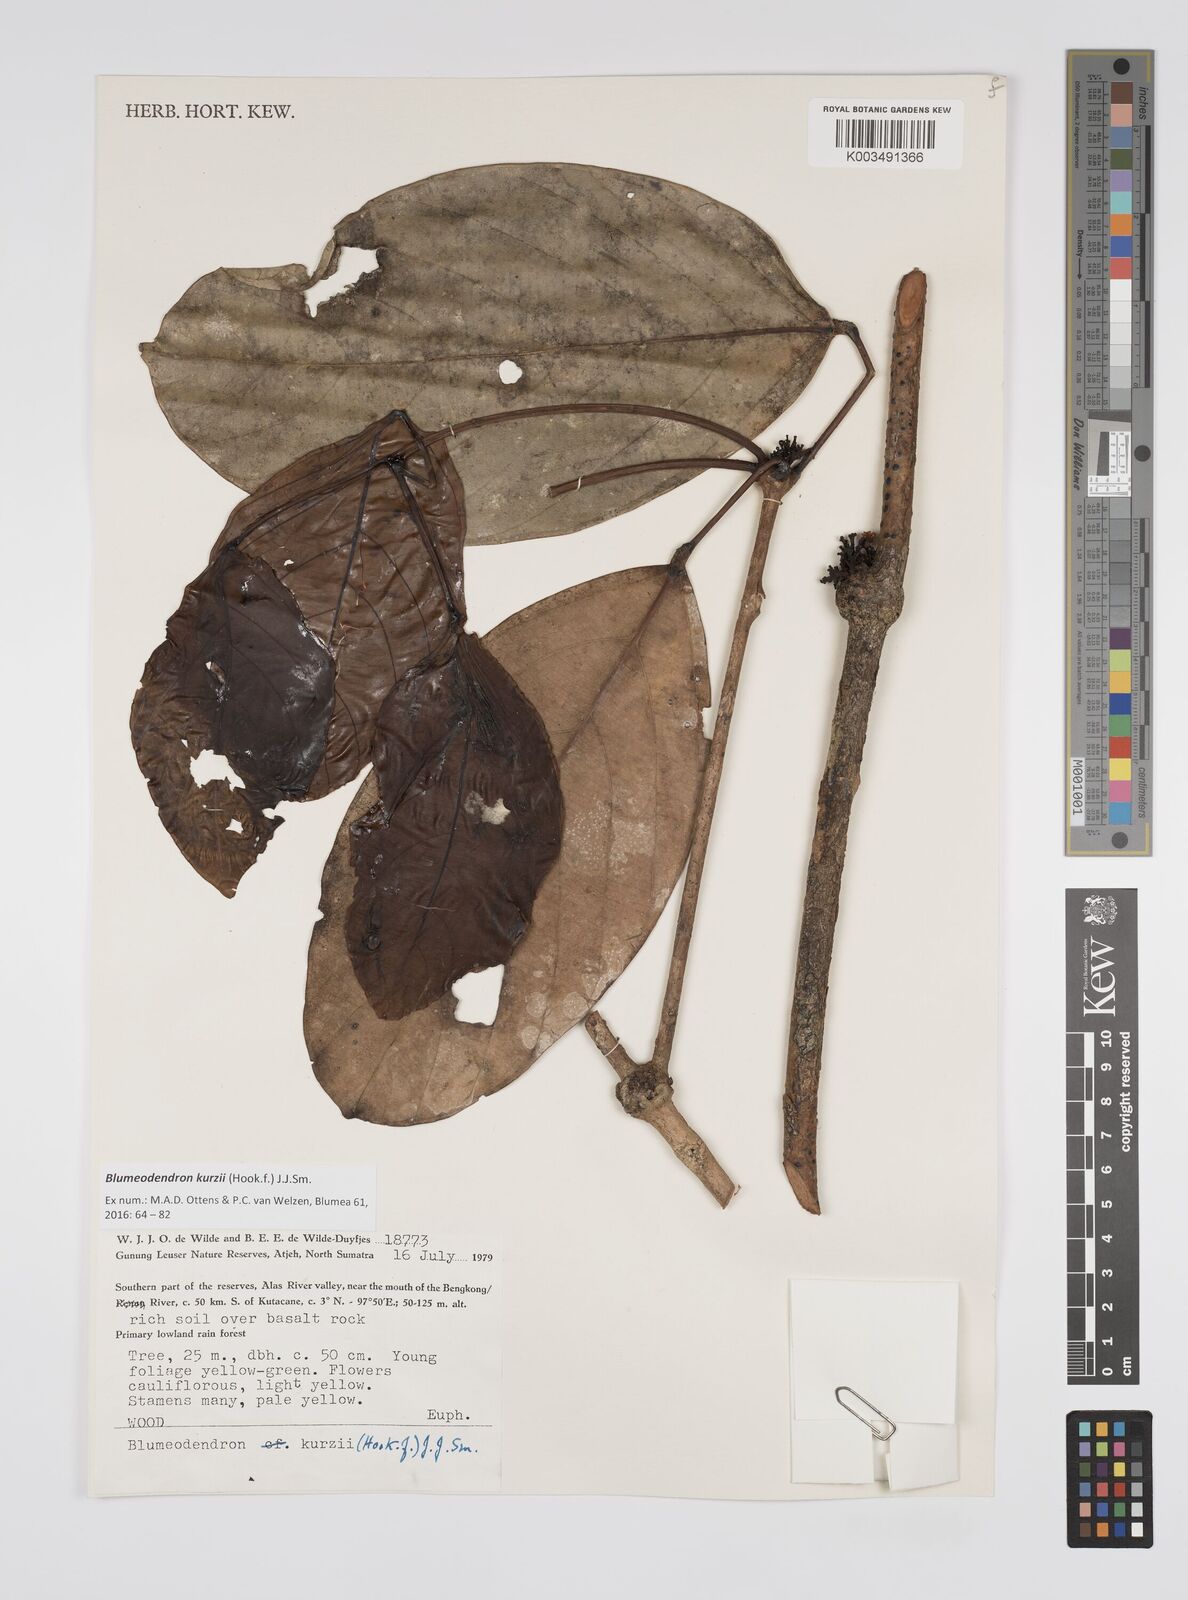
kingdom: Plantae
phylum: Tracheophyta
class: Magnoliopsida
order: Malpighiales
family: Euphorbiaceae
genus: Blumeodendron
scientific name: Blumeodendron kurzii
